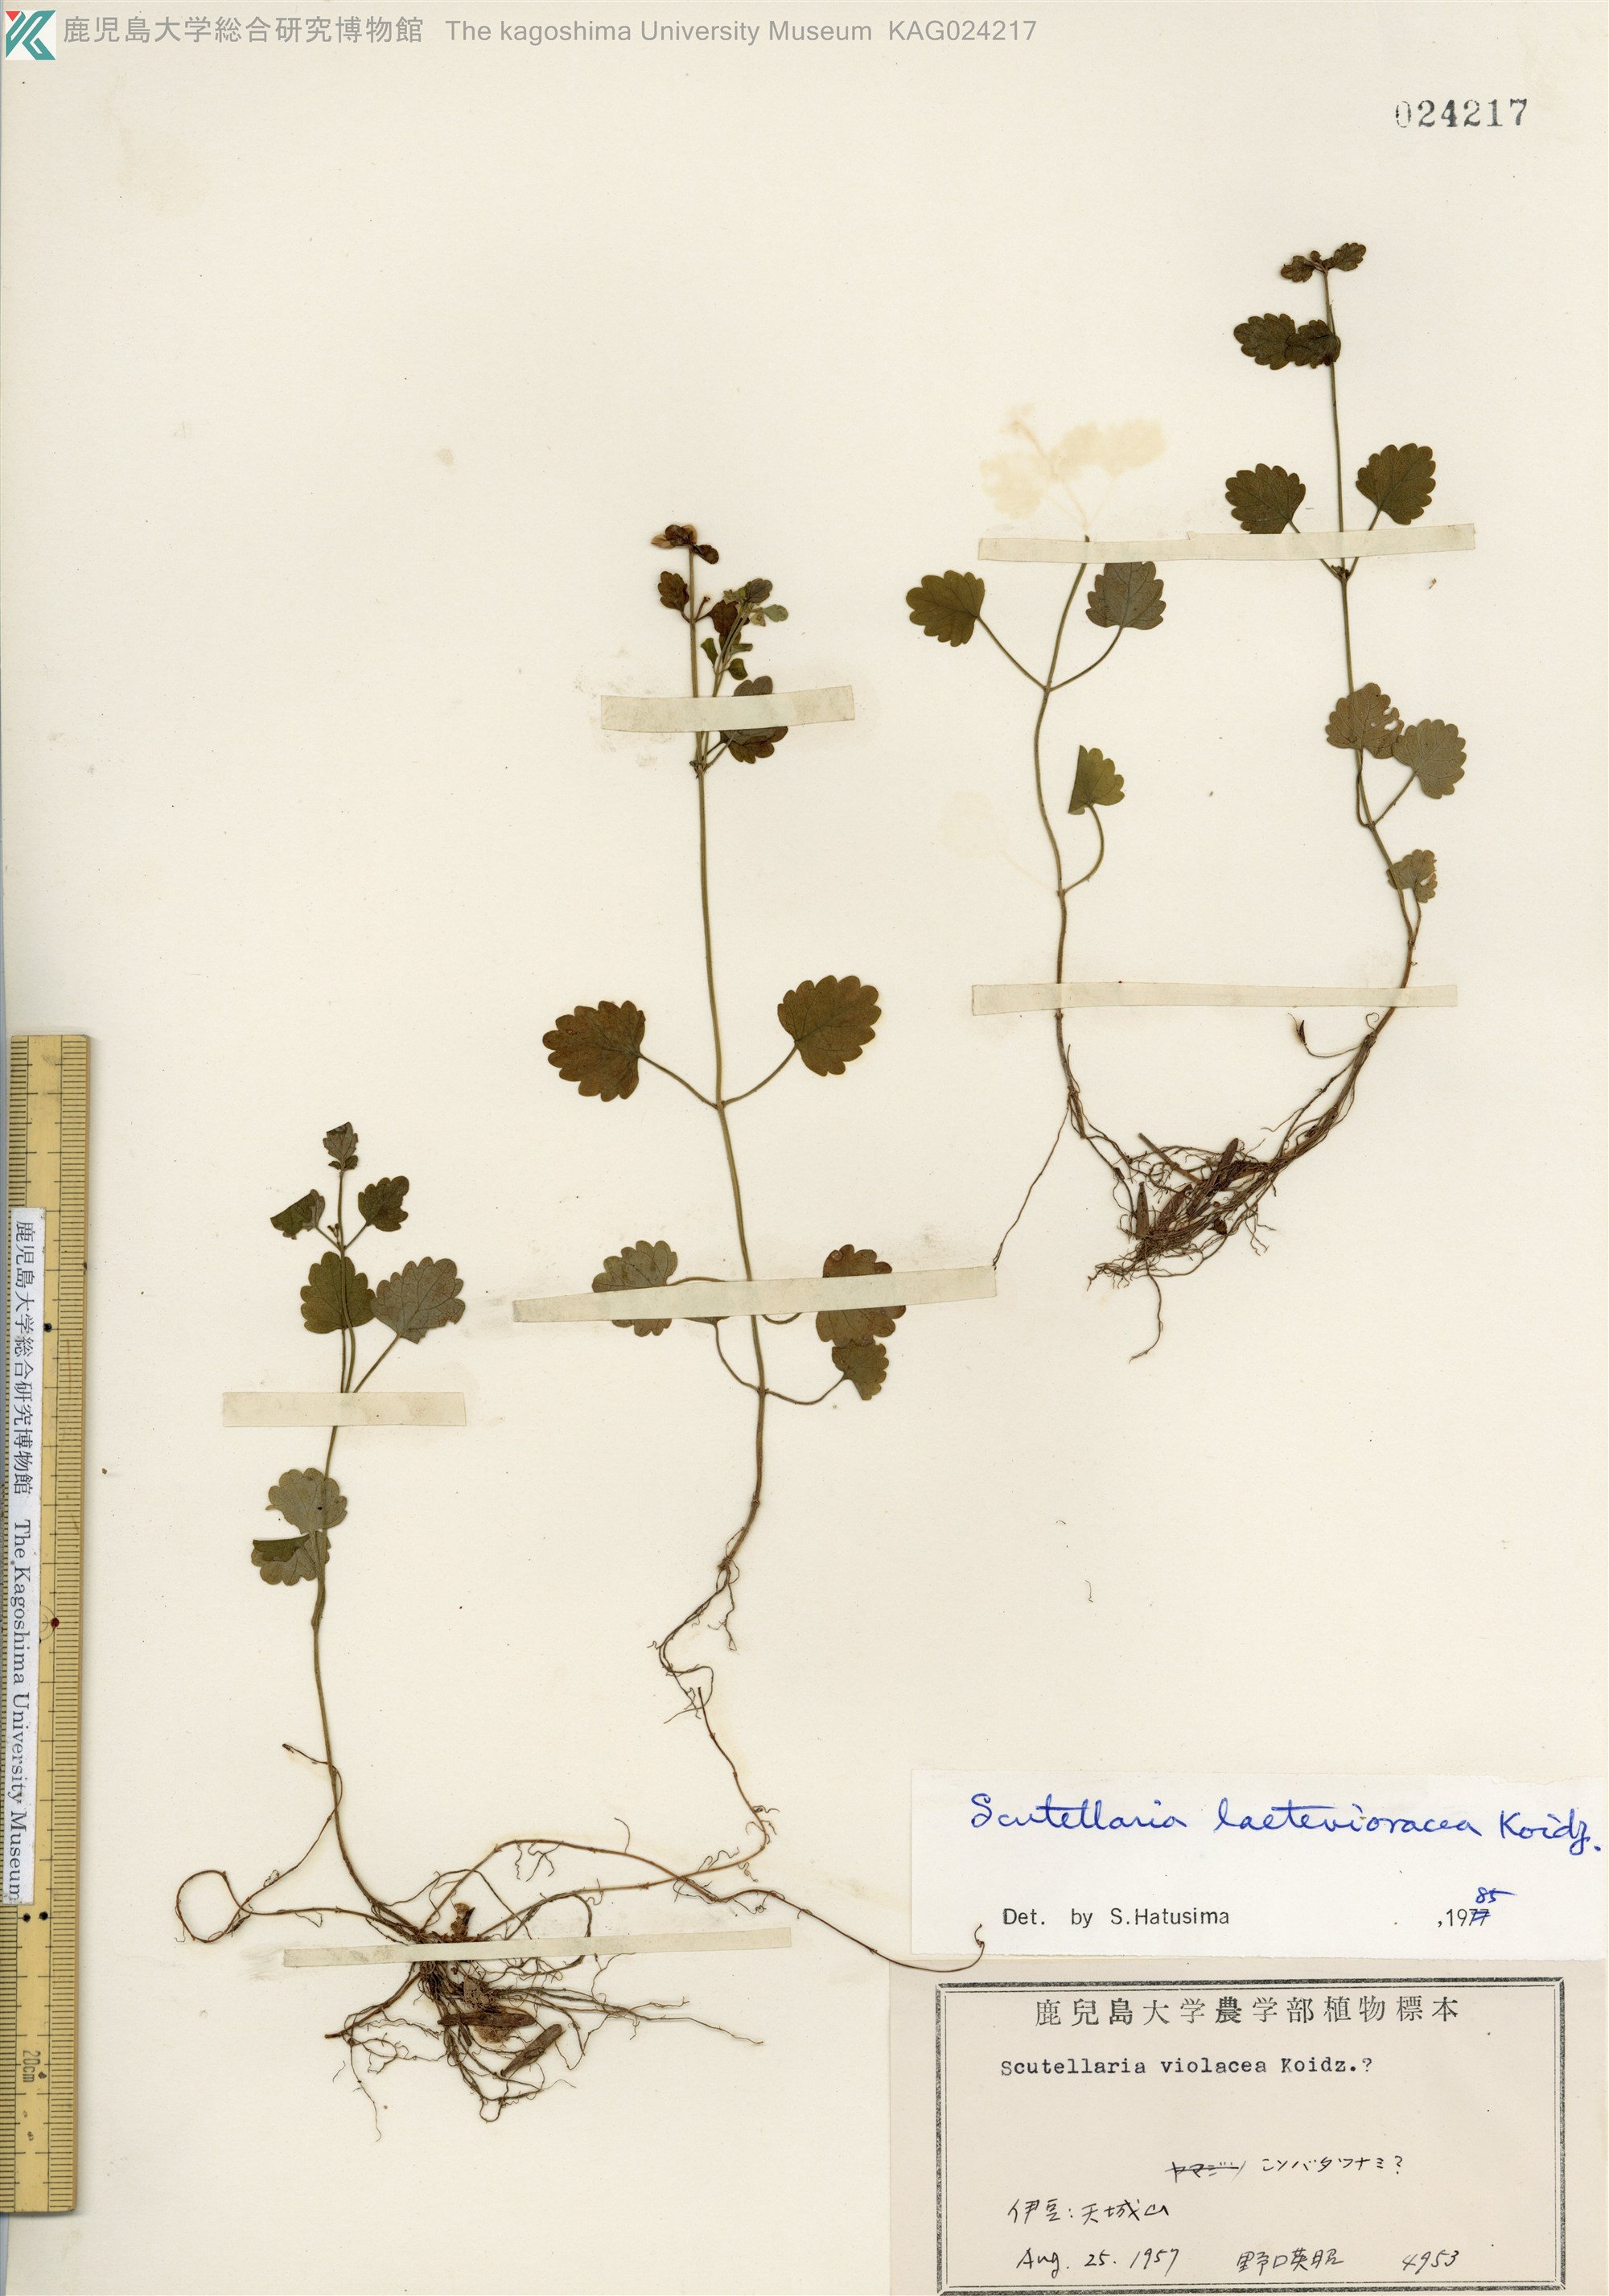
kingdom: Plantae
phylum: Tracheophyta
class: Magnoliopsida
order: Lamiales
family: Lamiaceae
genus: Scutellaria
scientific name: Scutellaria laeteviolacea
